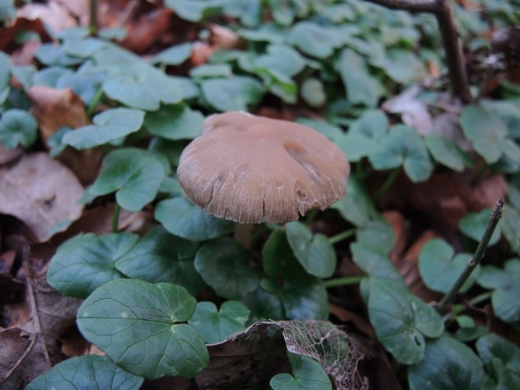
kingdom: Fungi
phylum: Basidiomycota
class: Agaricomycetes
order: Agaricales
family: Psathyrellaceae
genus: Psathyrella
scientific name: Psathyrella spadiceogrisea
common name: gråbrun mørkhat
